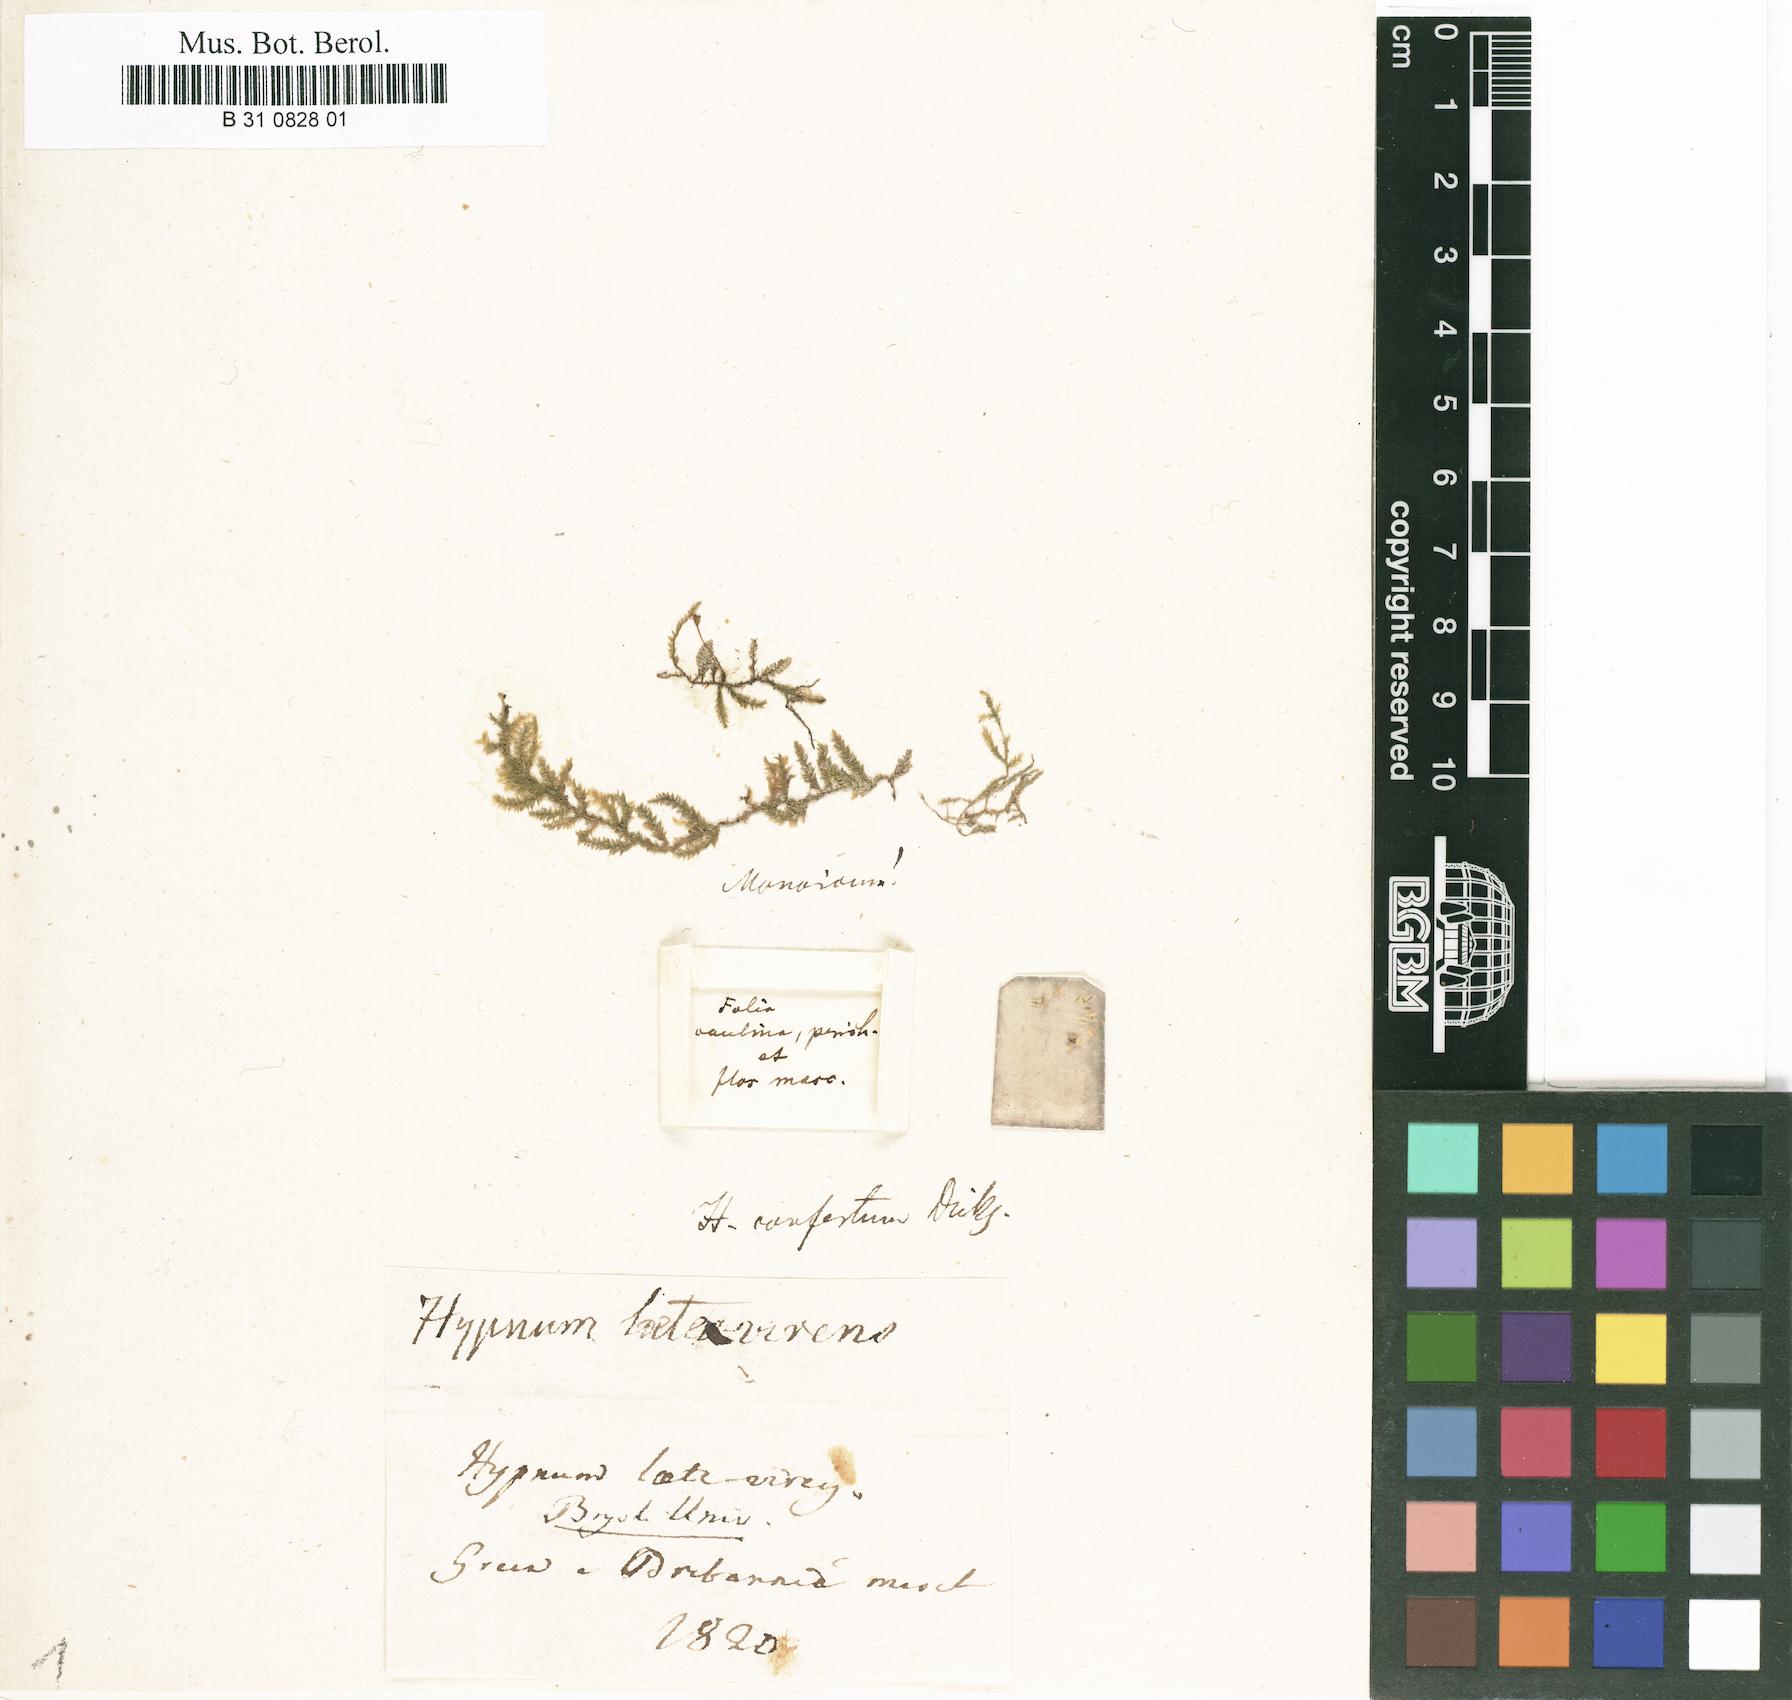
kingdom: Plantae
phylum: Bryophyta
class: Bryopsida
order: Hypnales
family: Brachytheciaceae
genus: Rhynchostegium
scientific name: Rhynchostegium confertum
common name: Clustered feather-moss
